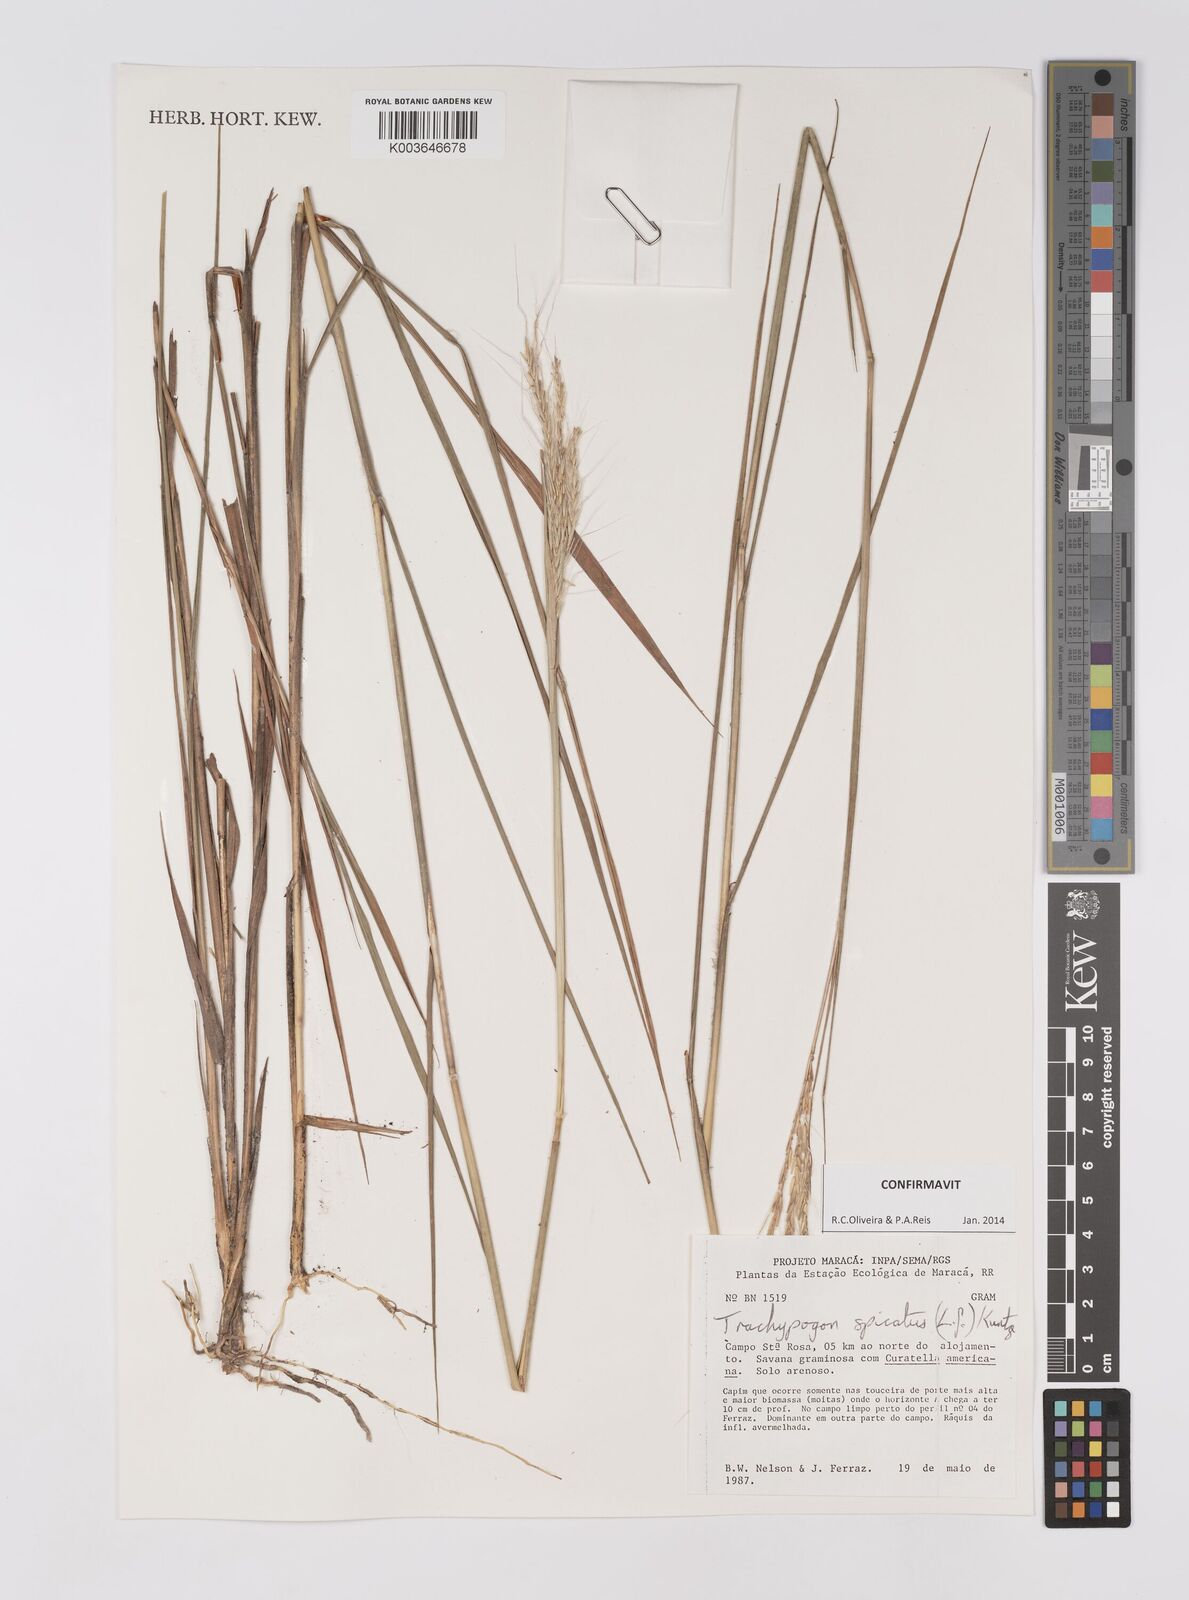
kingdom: Plantae
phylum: Tracheophyta
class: Liliopsida
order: Poales
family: Poaceae
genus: Trachypogon
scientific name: Trachypogon spicatus
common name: Crinkle-awn
